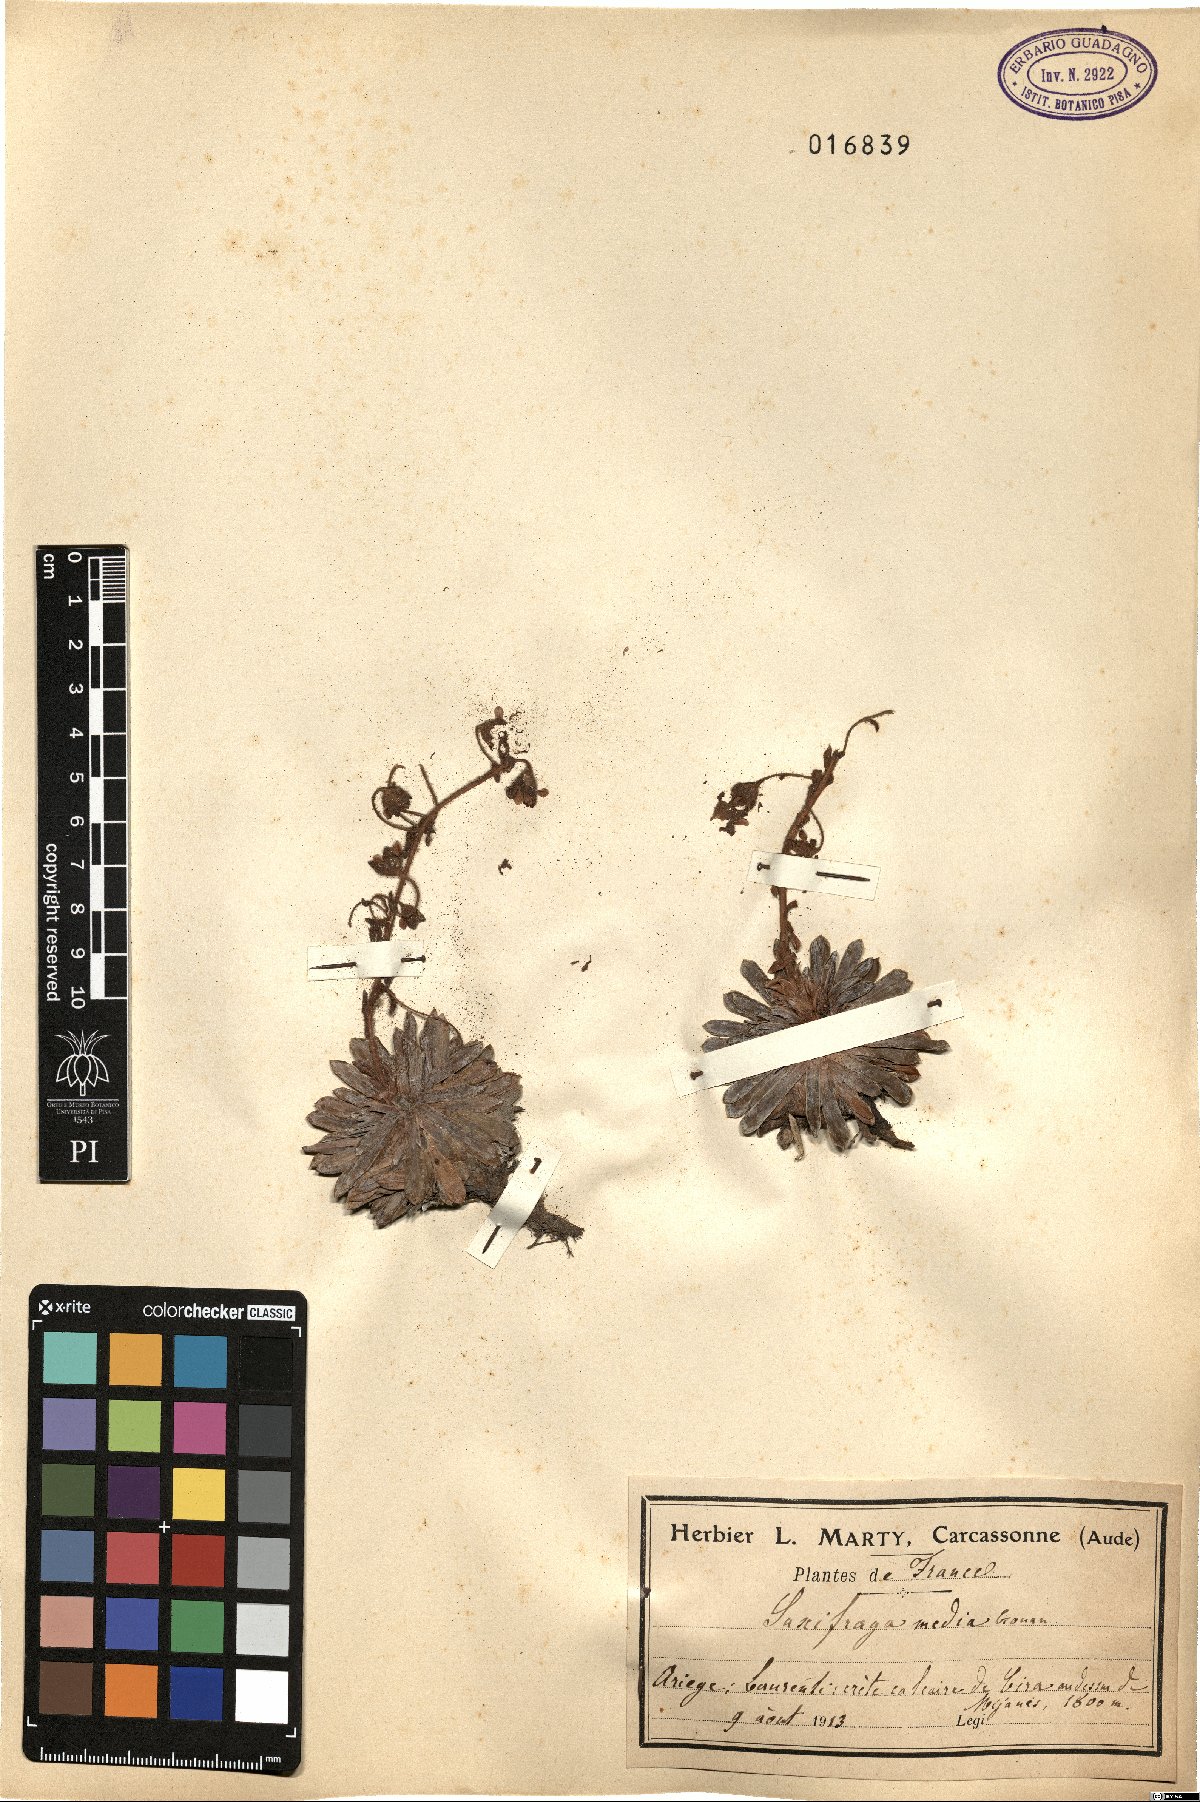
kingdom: Plantae
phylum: Tracheophyta
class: Magnoliopsida
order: Saxifragales
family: Saxifragaceae
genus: Saxifraga
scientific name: Saxifraga media
